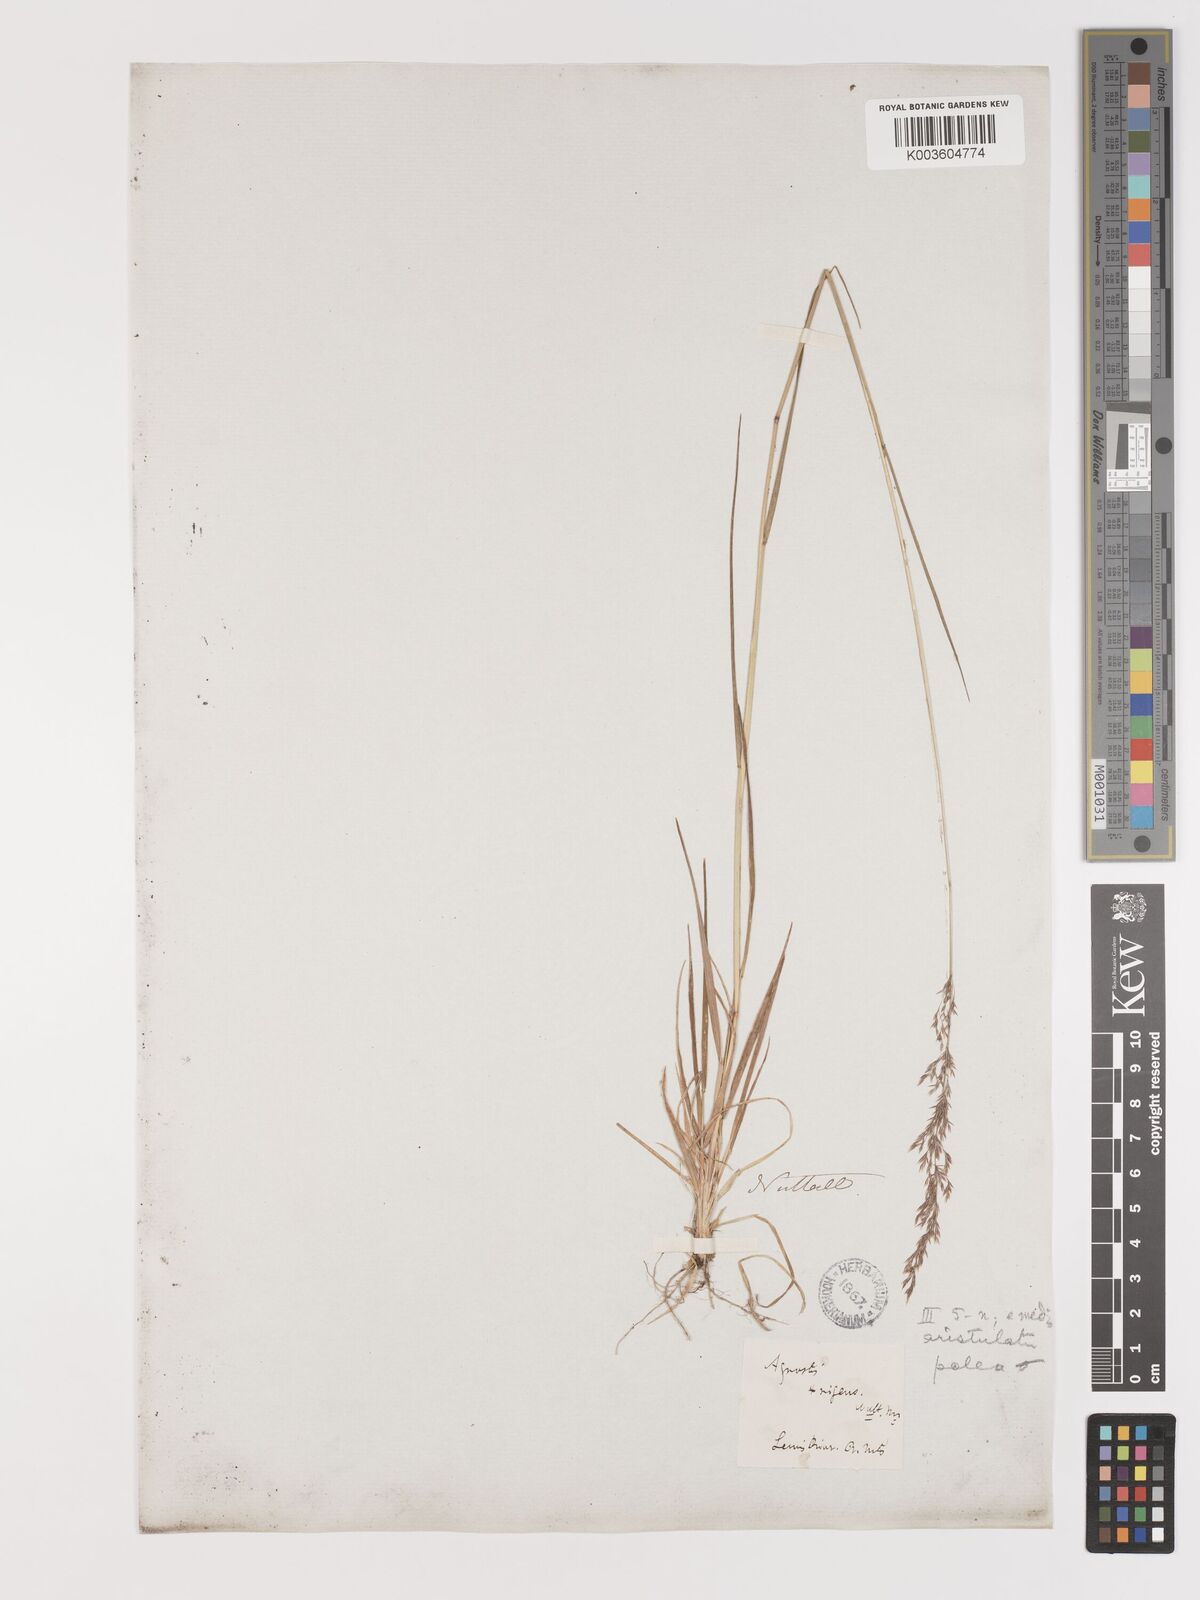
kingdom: Plantae
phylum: Tracheophyta
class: Liliopsida
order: Poales
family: Poaceae
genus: Agrostis
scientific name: Agrostis canina
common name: Velvet bent
